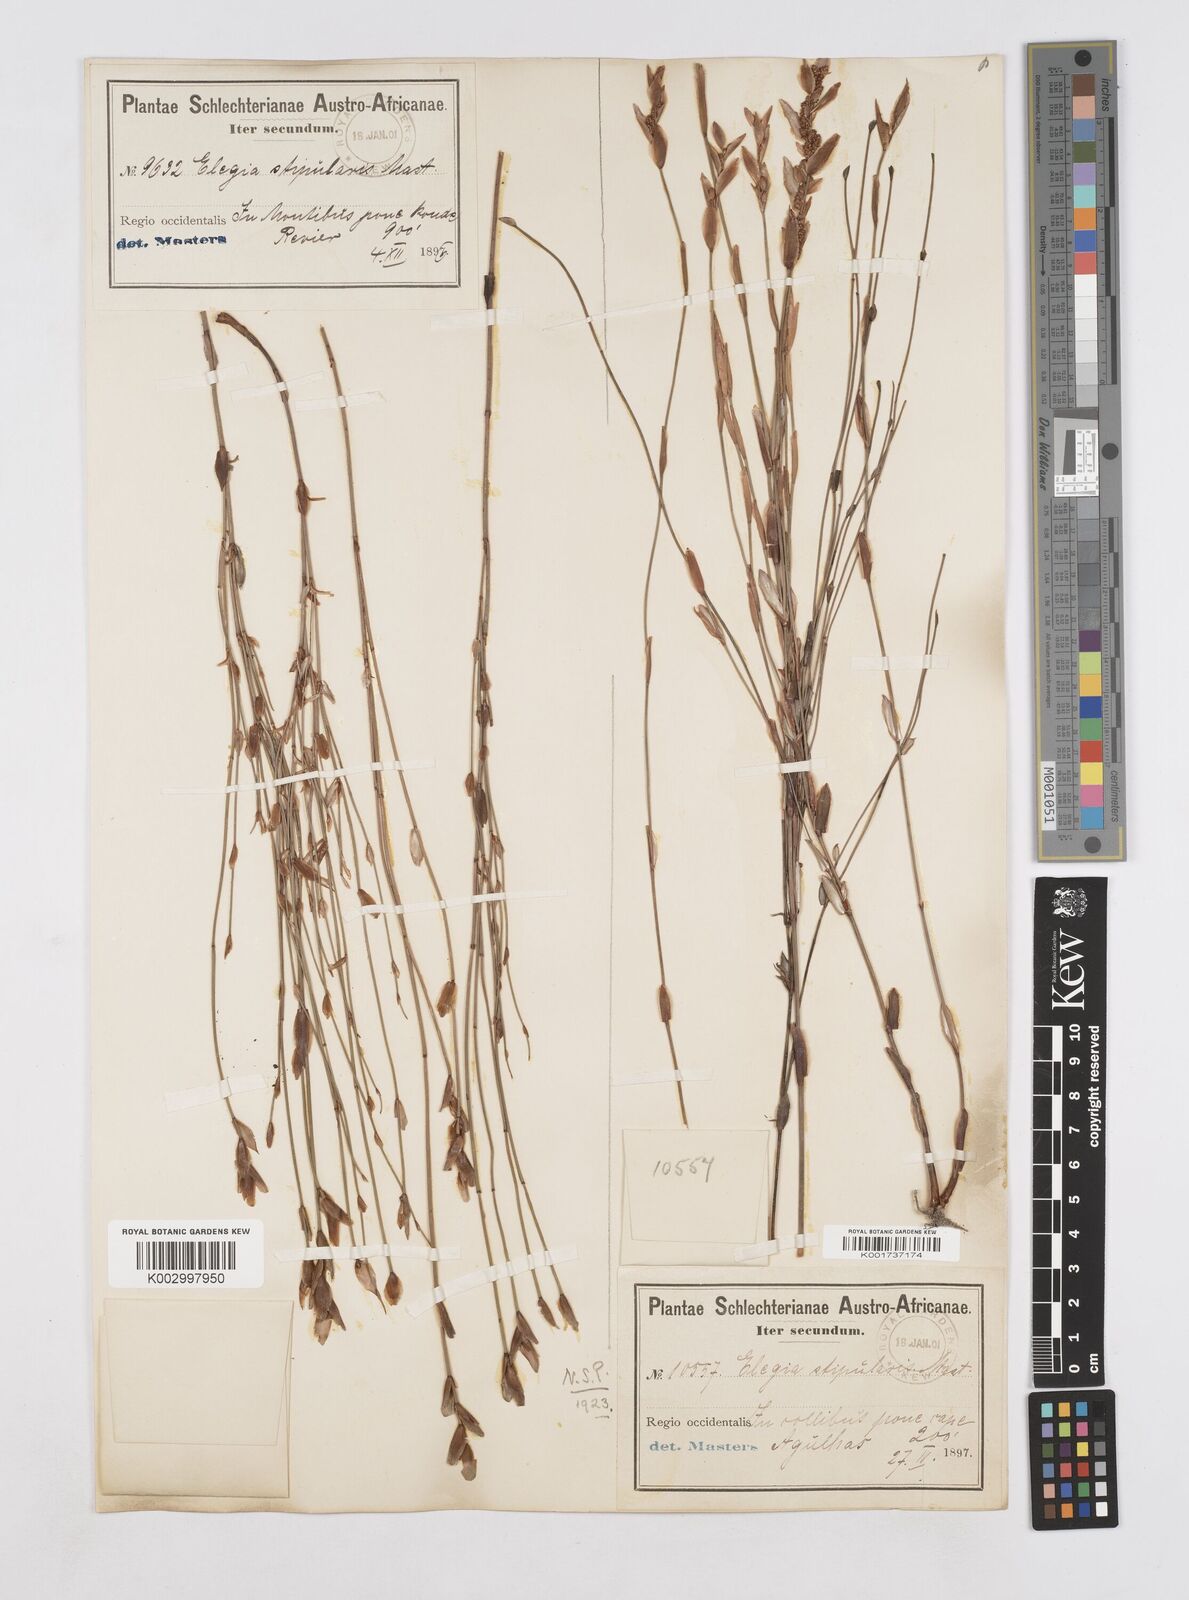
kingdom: Plantae
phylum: Tracheophyta
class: Liliopsida
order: Poales
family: Restionaceae
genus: Elegia
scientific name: Elegia stipularis
